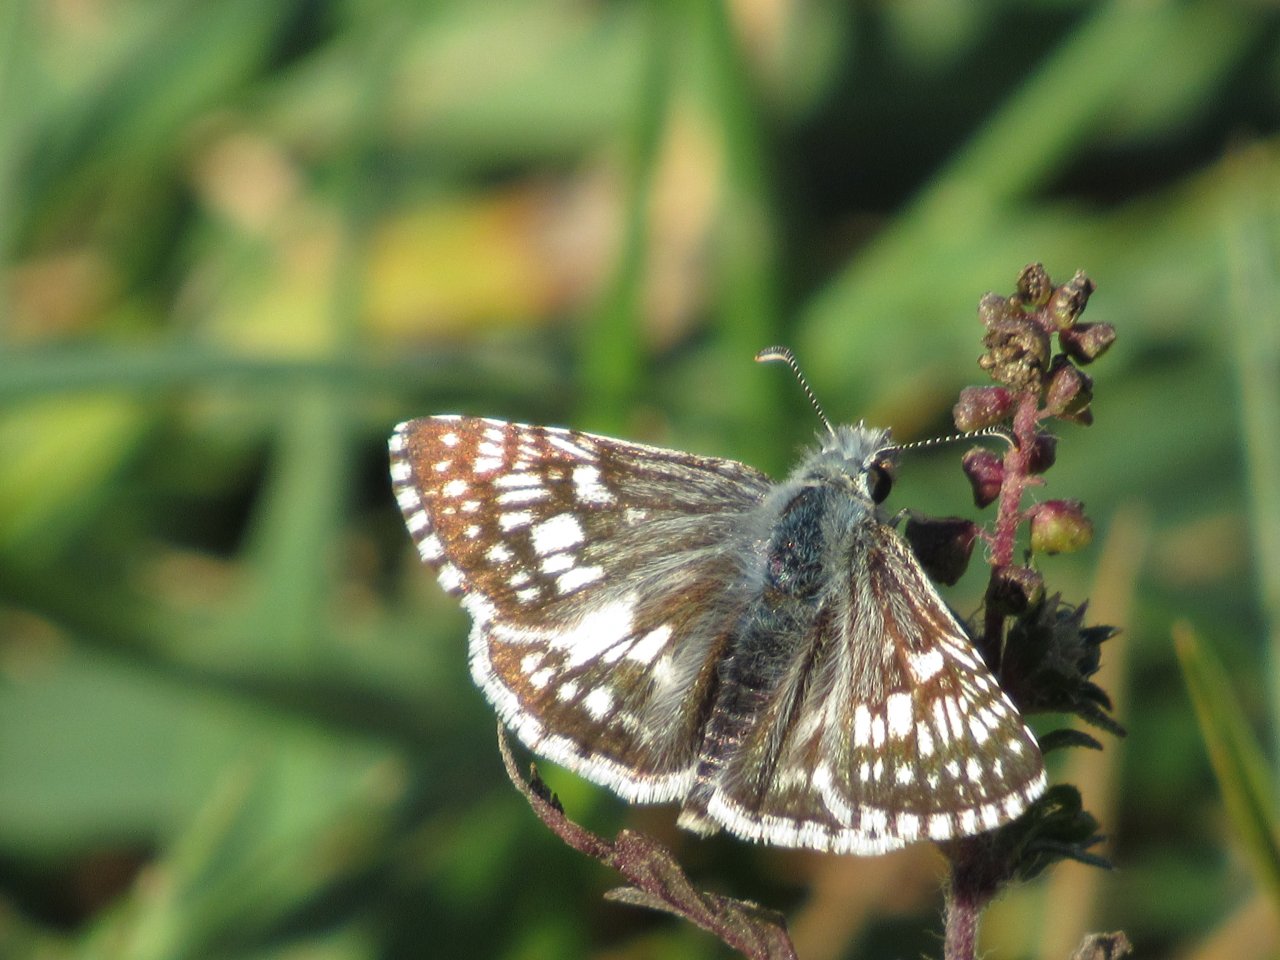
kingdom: Animalia
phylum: Arthropoda
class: Insecta
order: Lepidoptera
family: Hesperiidae
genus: Pyrgus
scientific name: Pyrgus communis
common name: Common Checkered-Skipper
